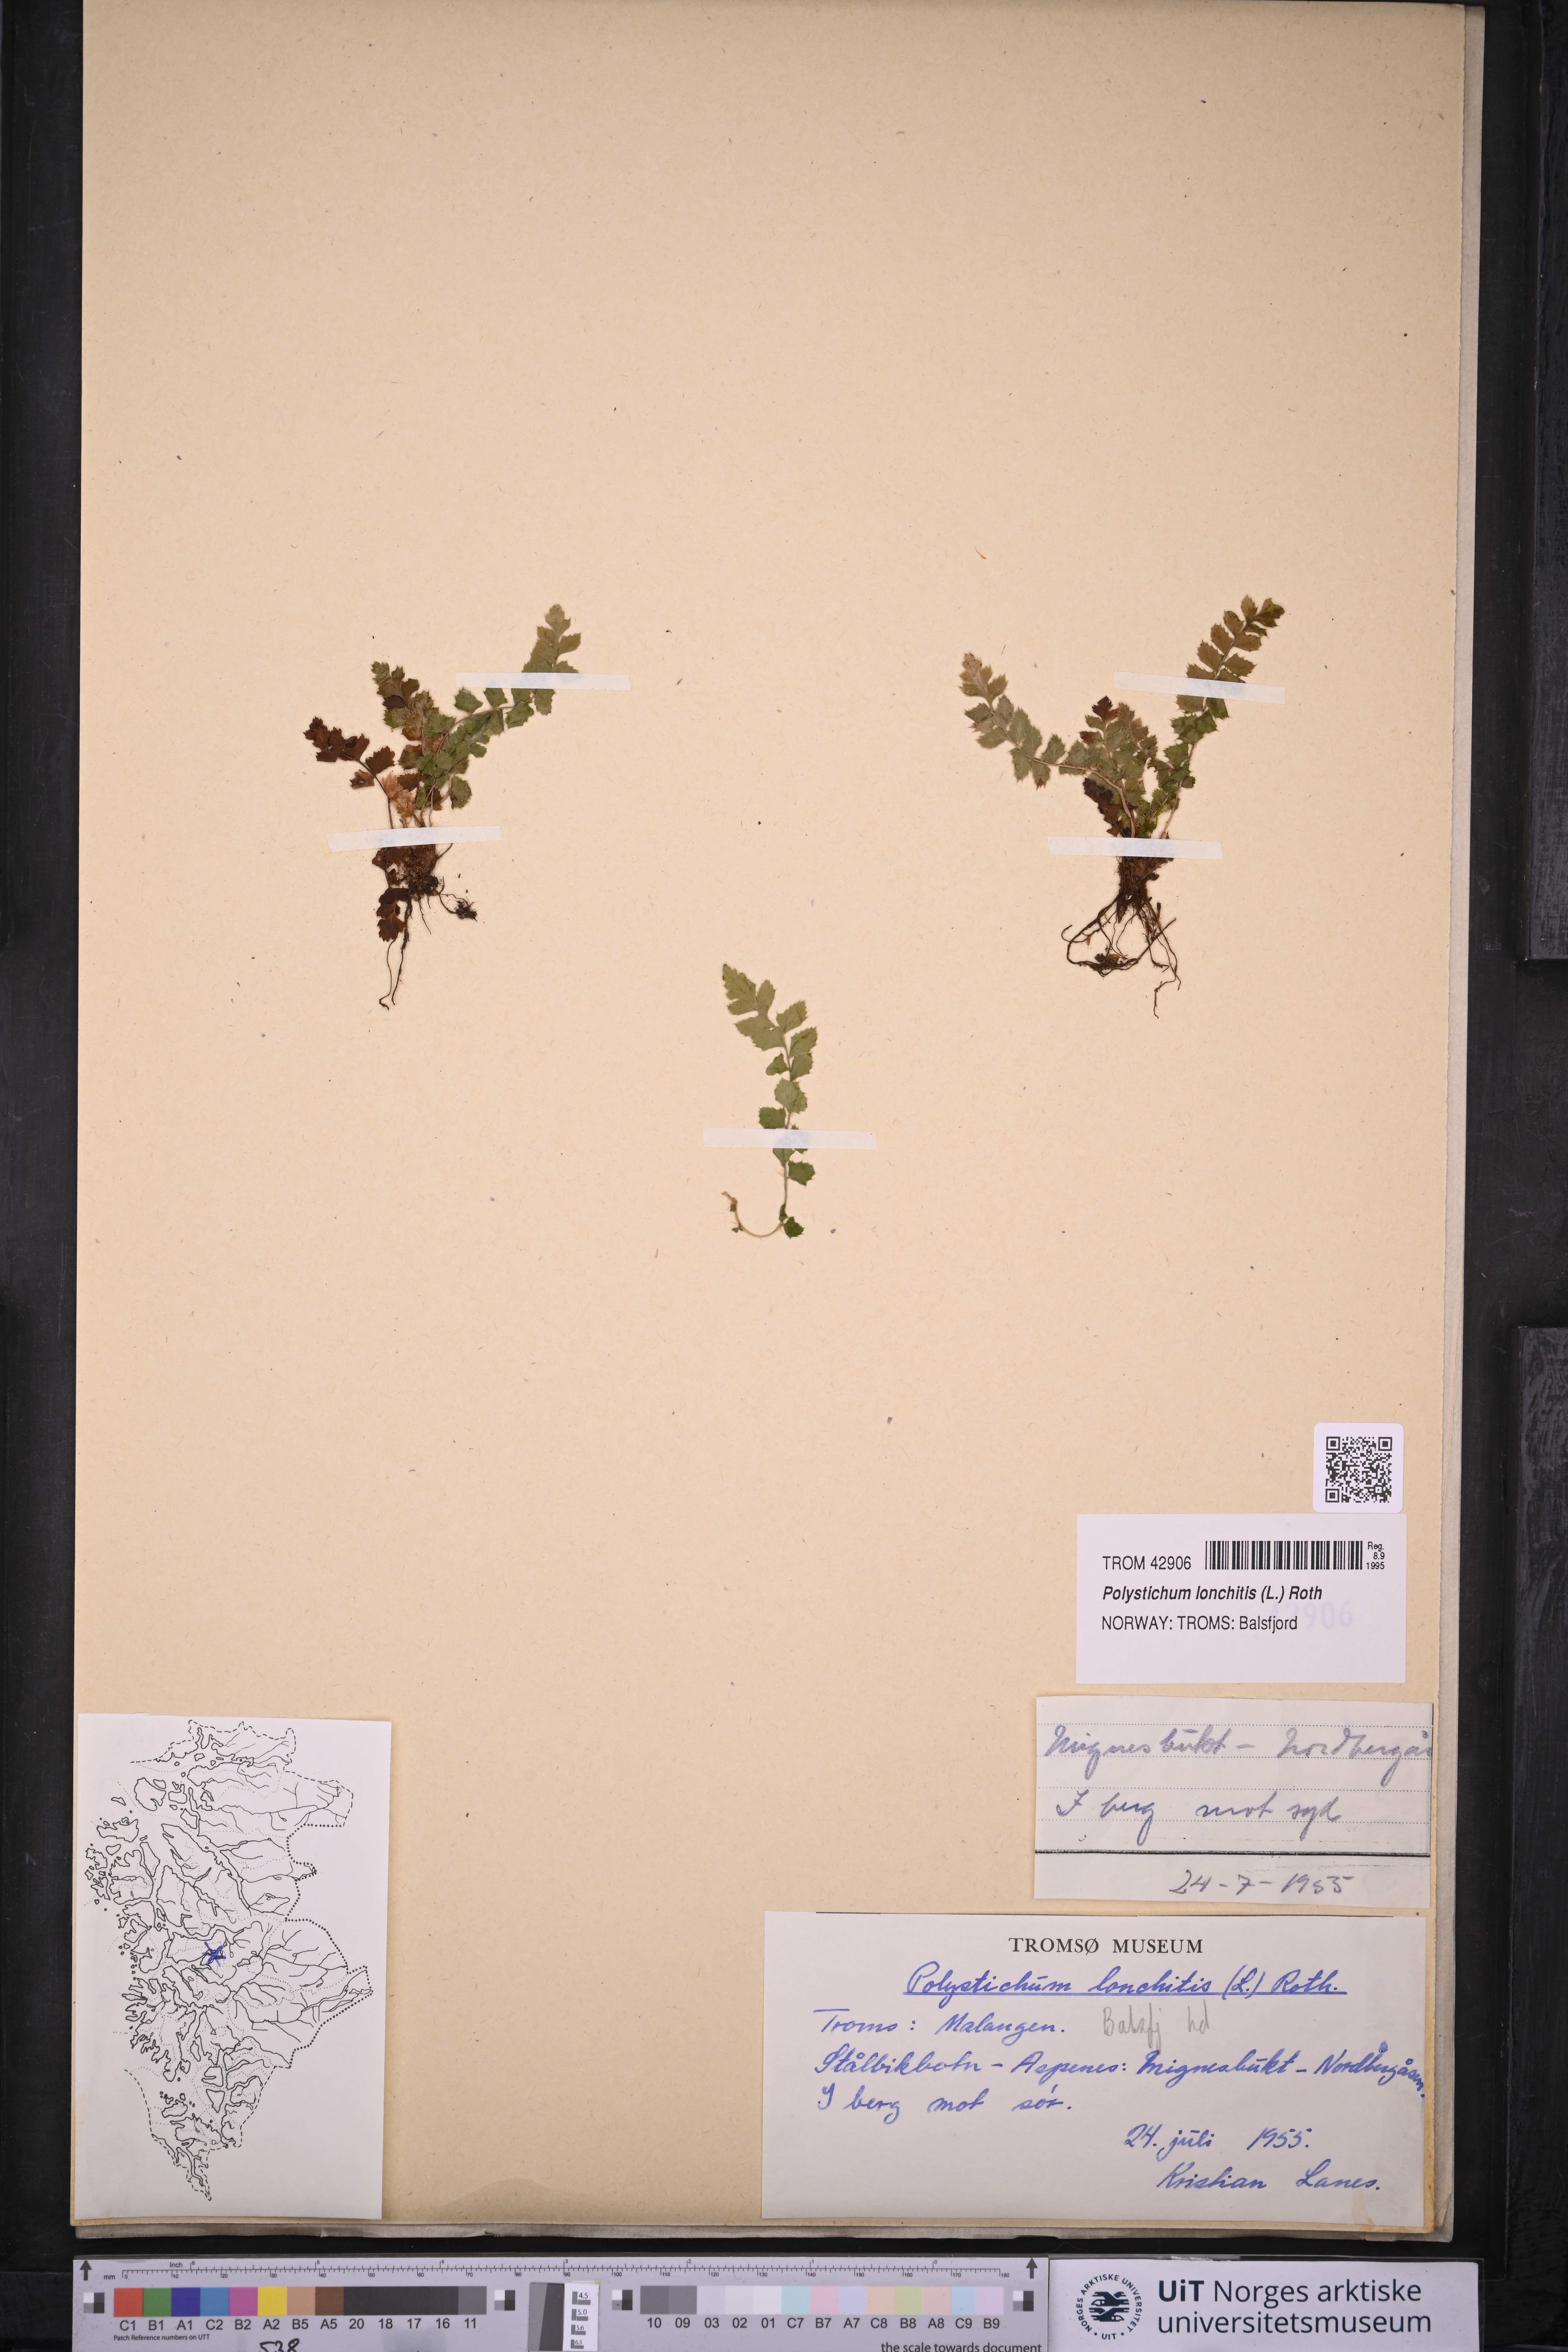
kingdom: Plantae
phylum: Tracheophyta
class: Polypodiopsida
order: Polypodiales
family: Dryopteridaceae
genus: Polystichum
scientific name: Polystichum lonchitis
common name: Holly fern
